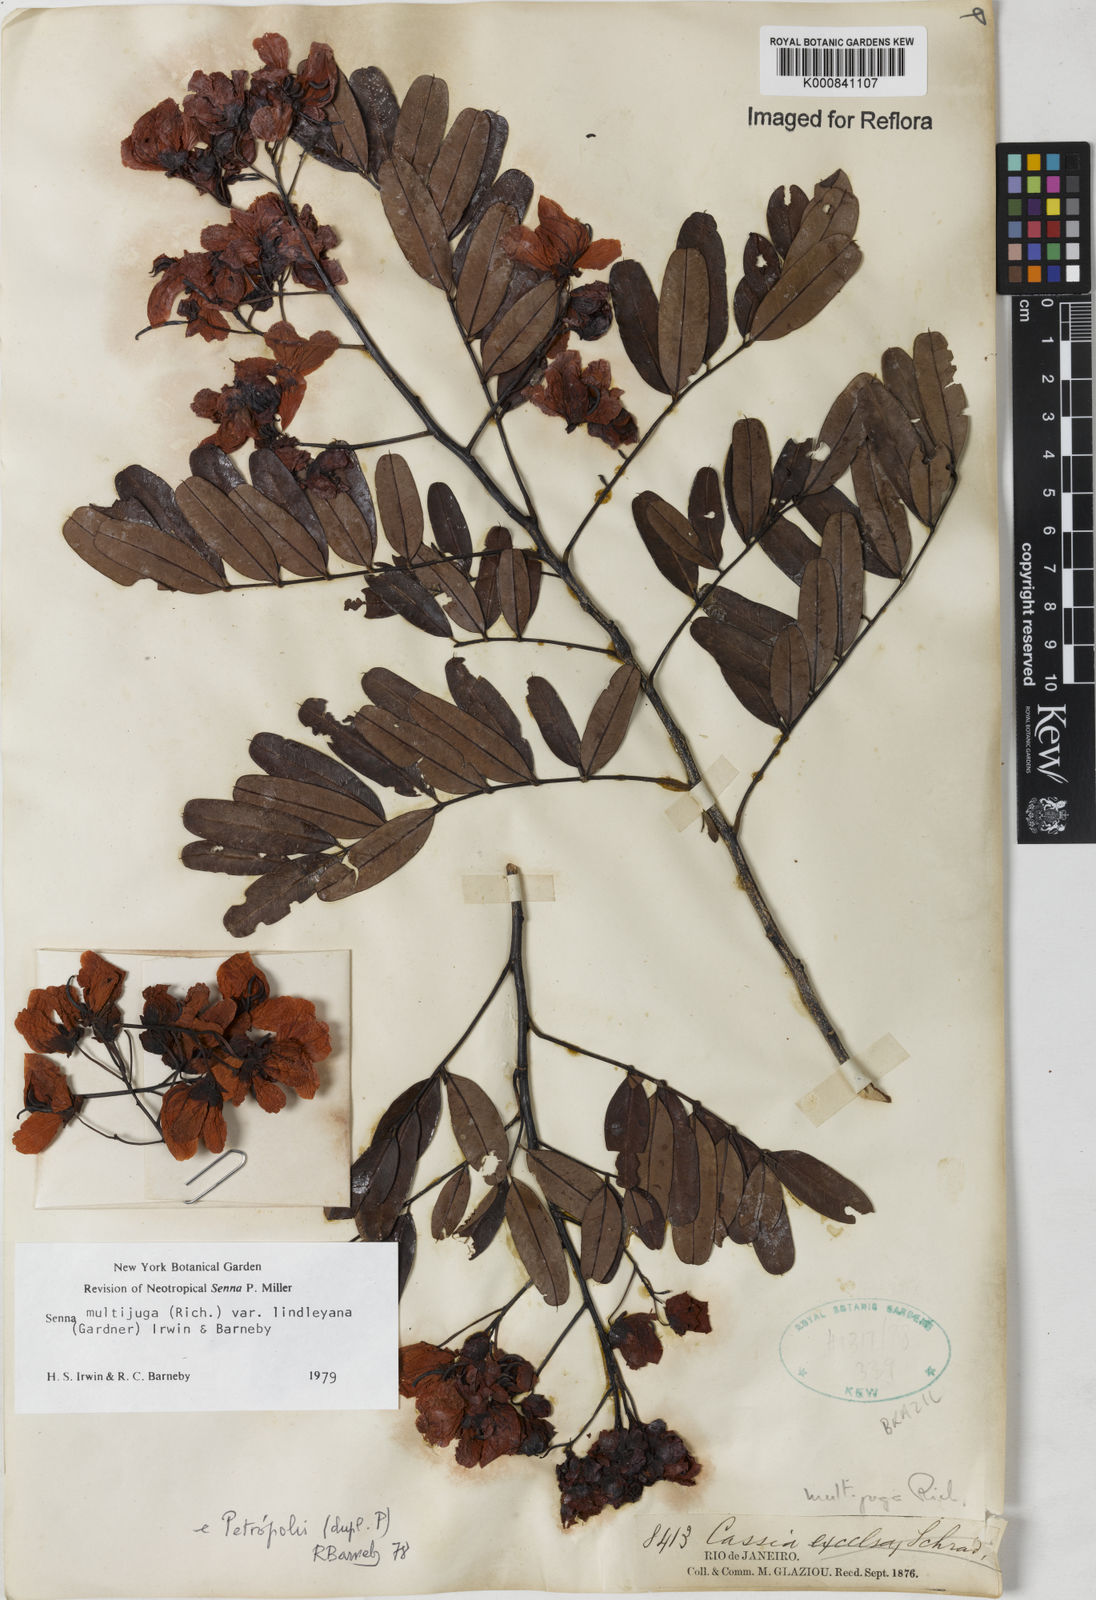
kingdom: Plantae
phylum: Tracheophyta
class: Magnoliopsida
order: Fabales
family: Fabaceae
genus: Senna
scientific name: Senna multijuga
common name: False sicklepod
